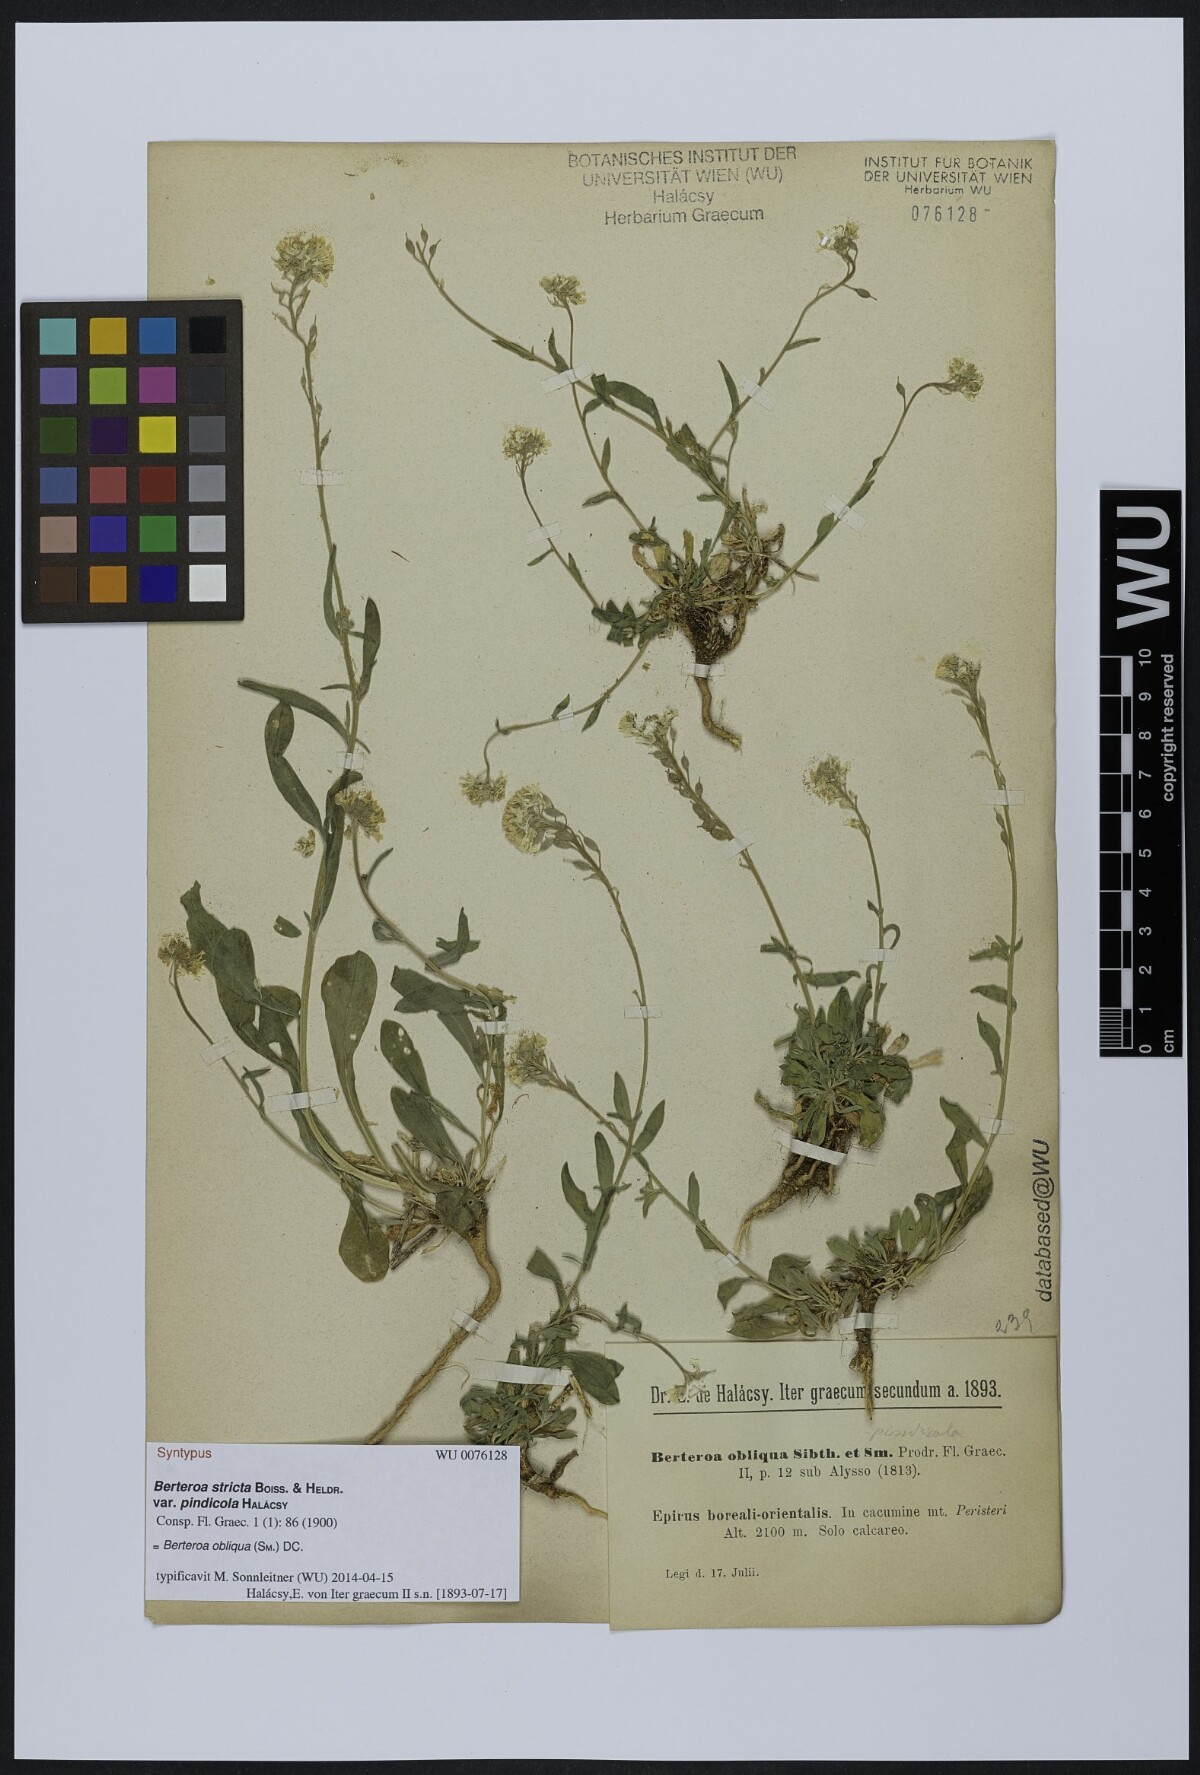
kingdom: Plantae
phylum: Tracheophyta
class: Magnoliopsida
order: Brassicales
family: Brassicaceae
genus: Berteroa
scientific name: Berteroa incana
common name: Hoary alison
